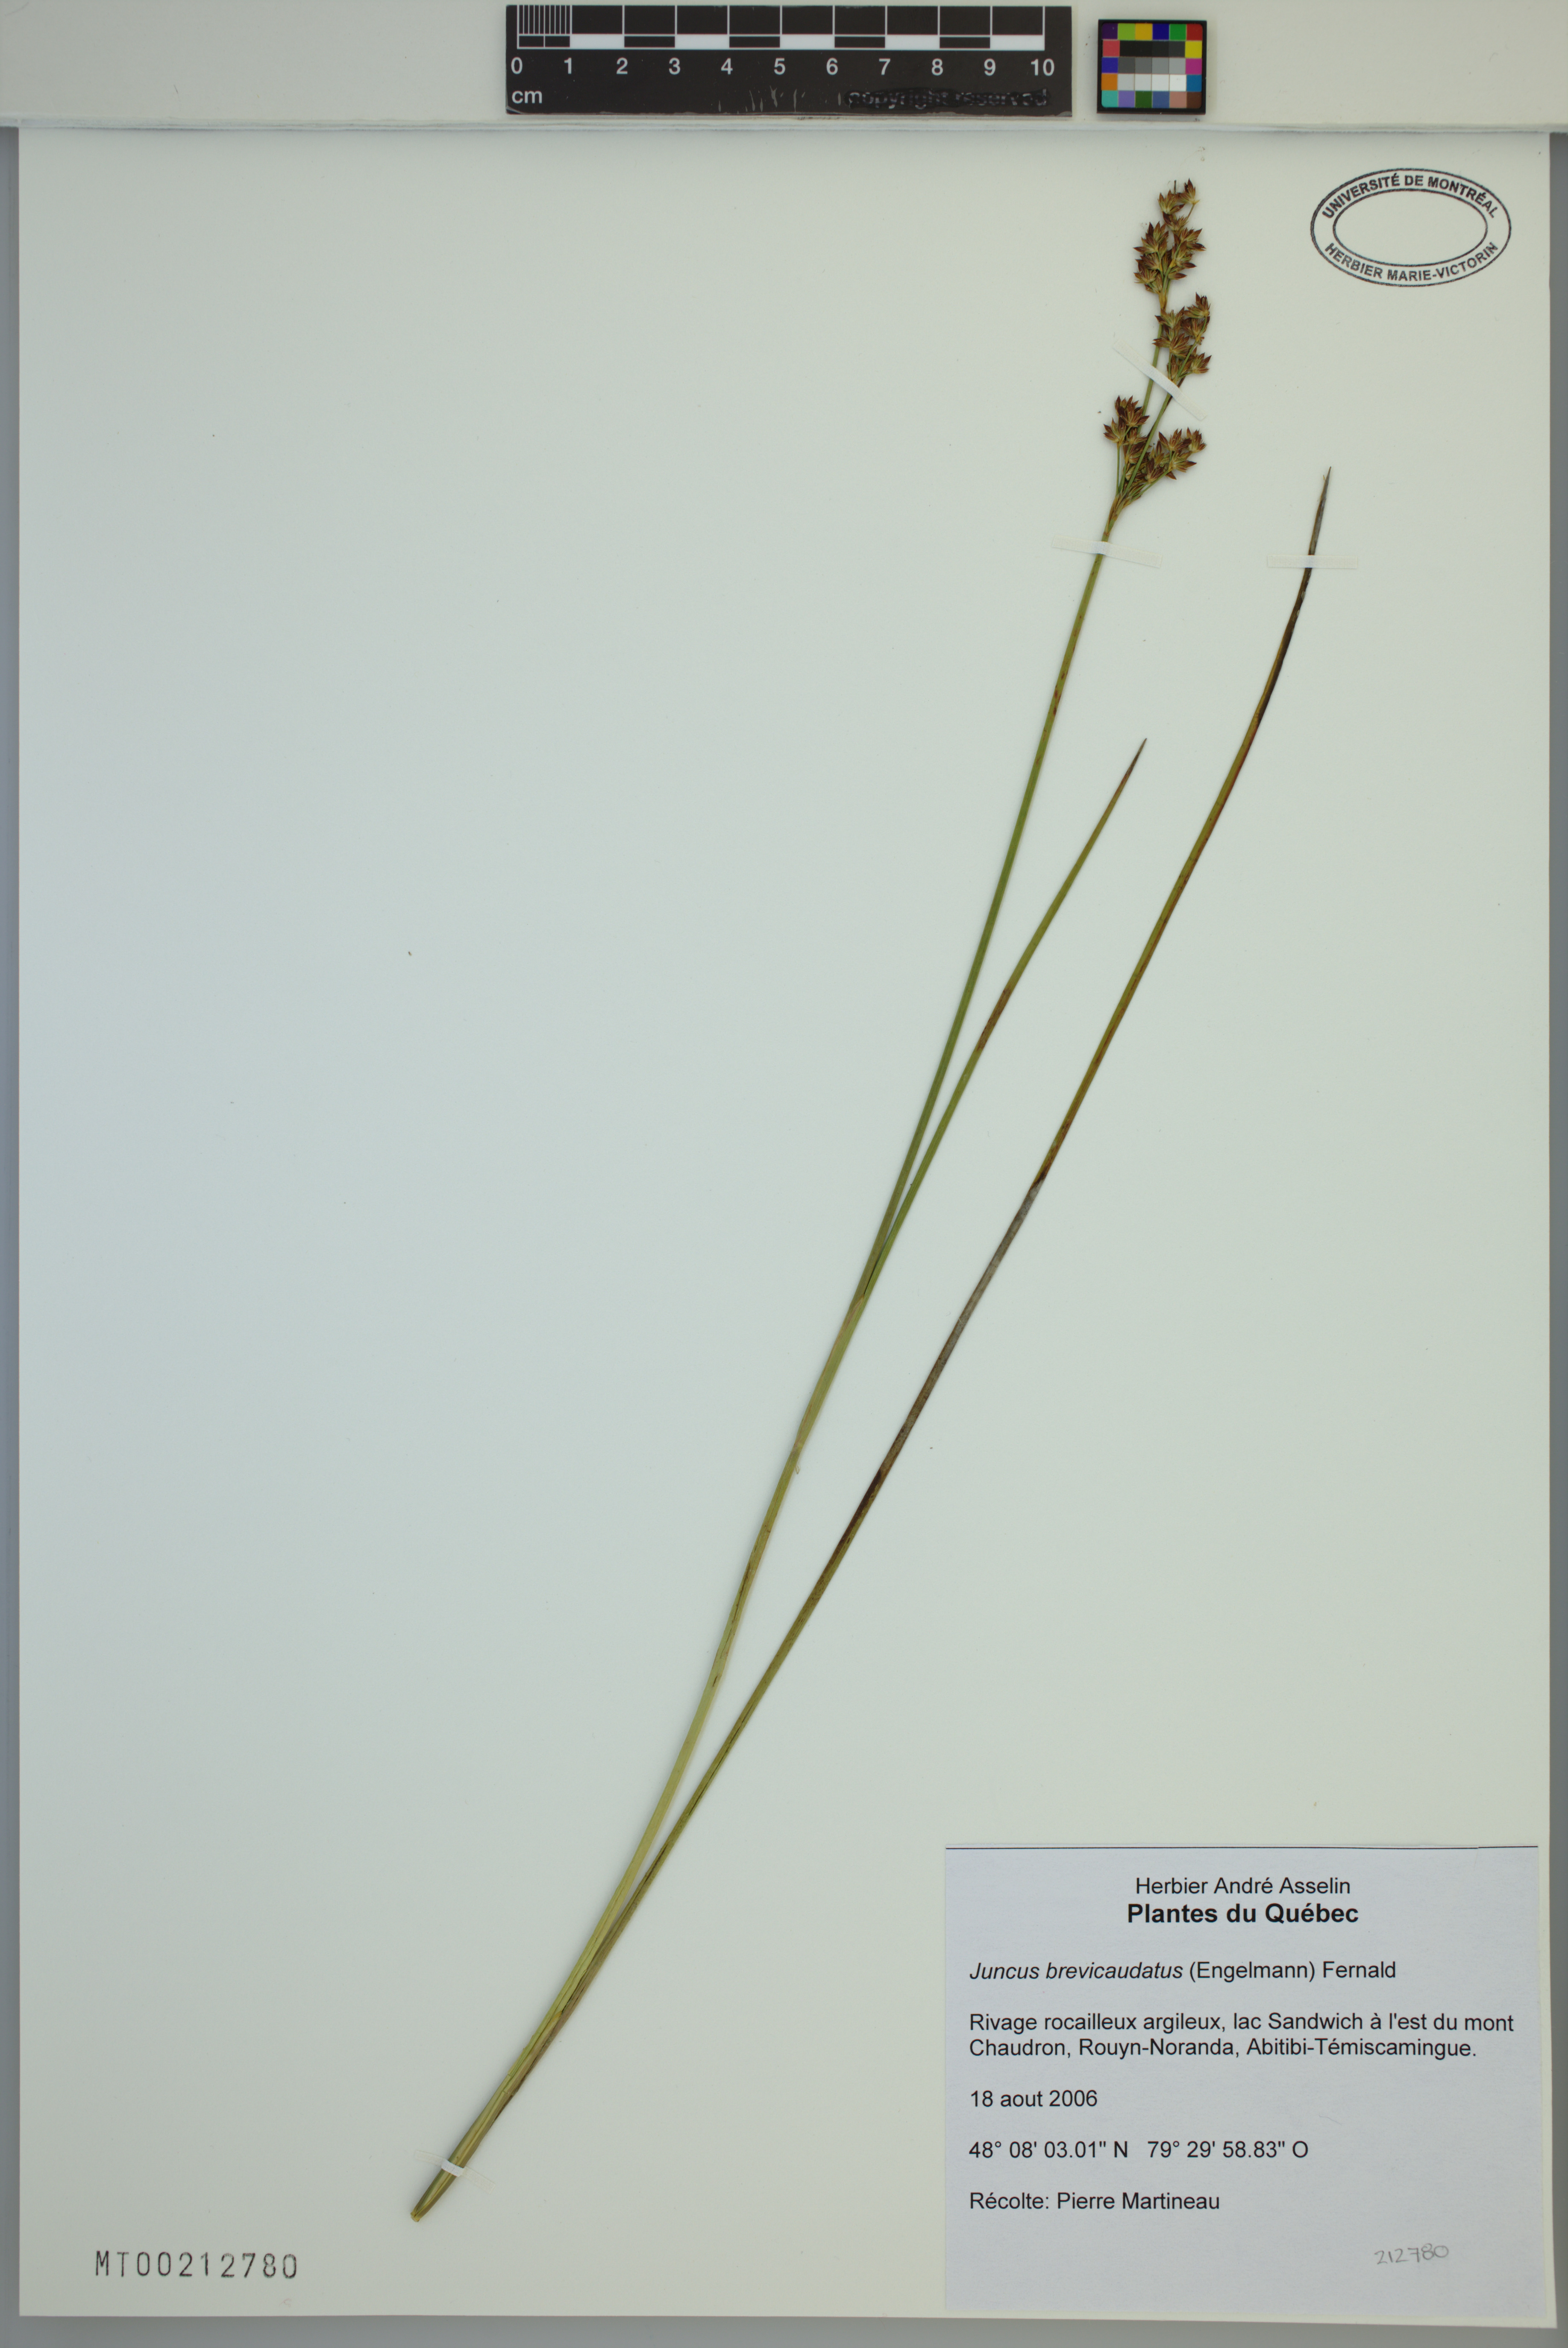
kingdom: Plantae
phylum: Tracheophyta
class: Liliopsida
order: Poales
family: Juncaceae
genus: Juncus
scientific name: Juncus brevicaudatus
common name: Narrow-panicle rush
